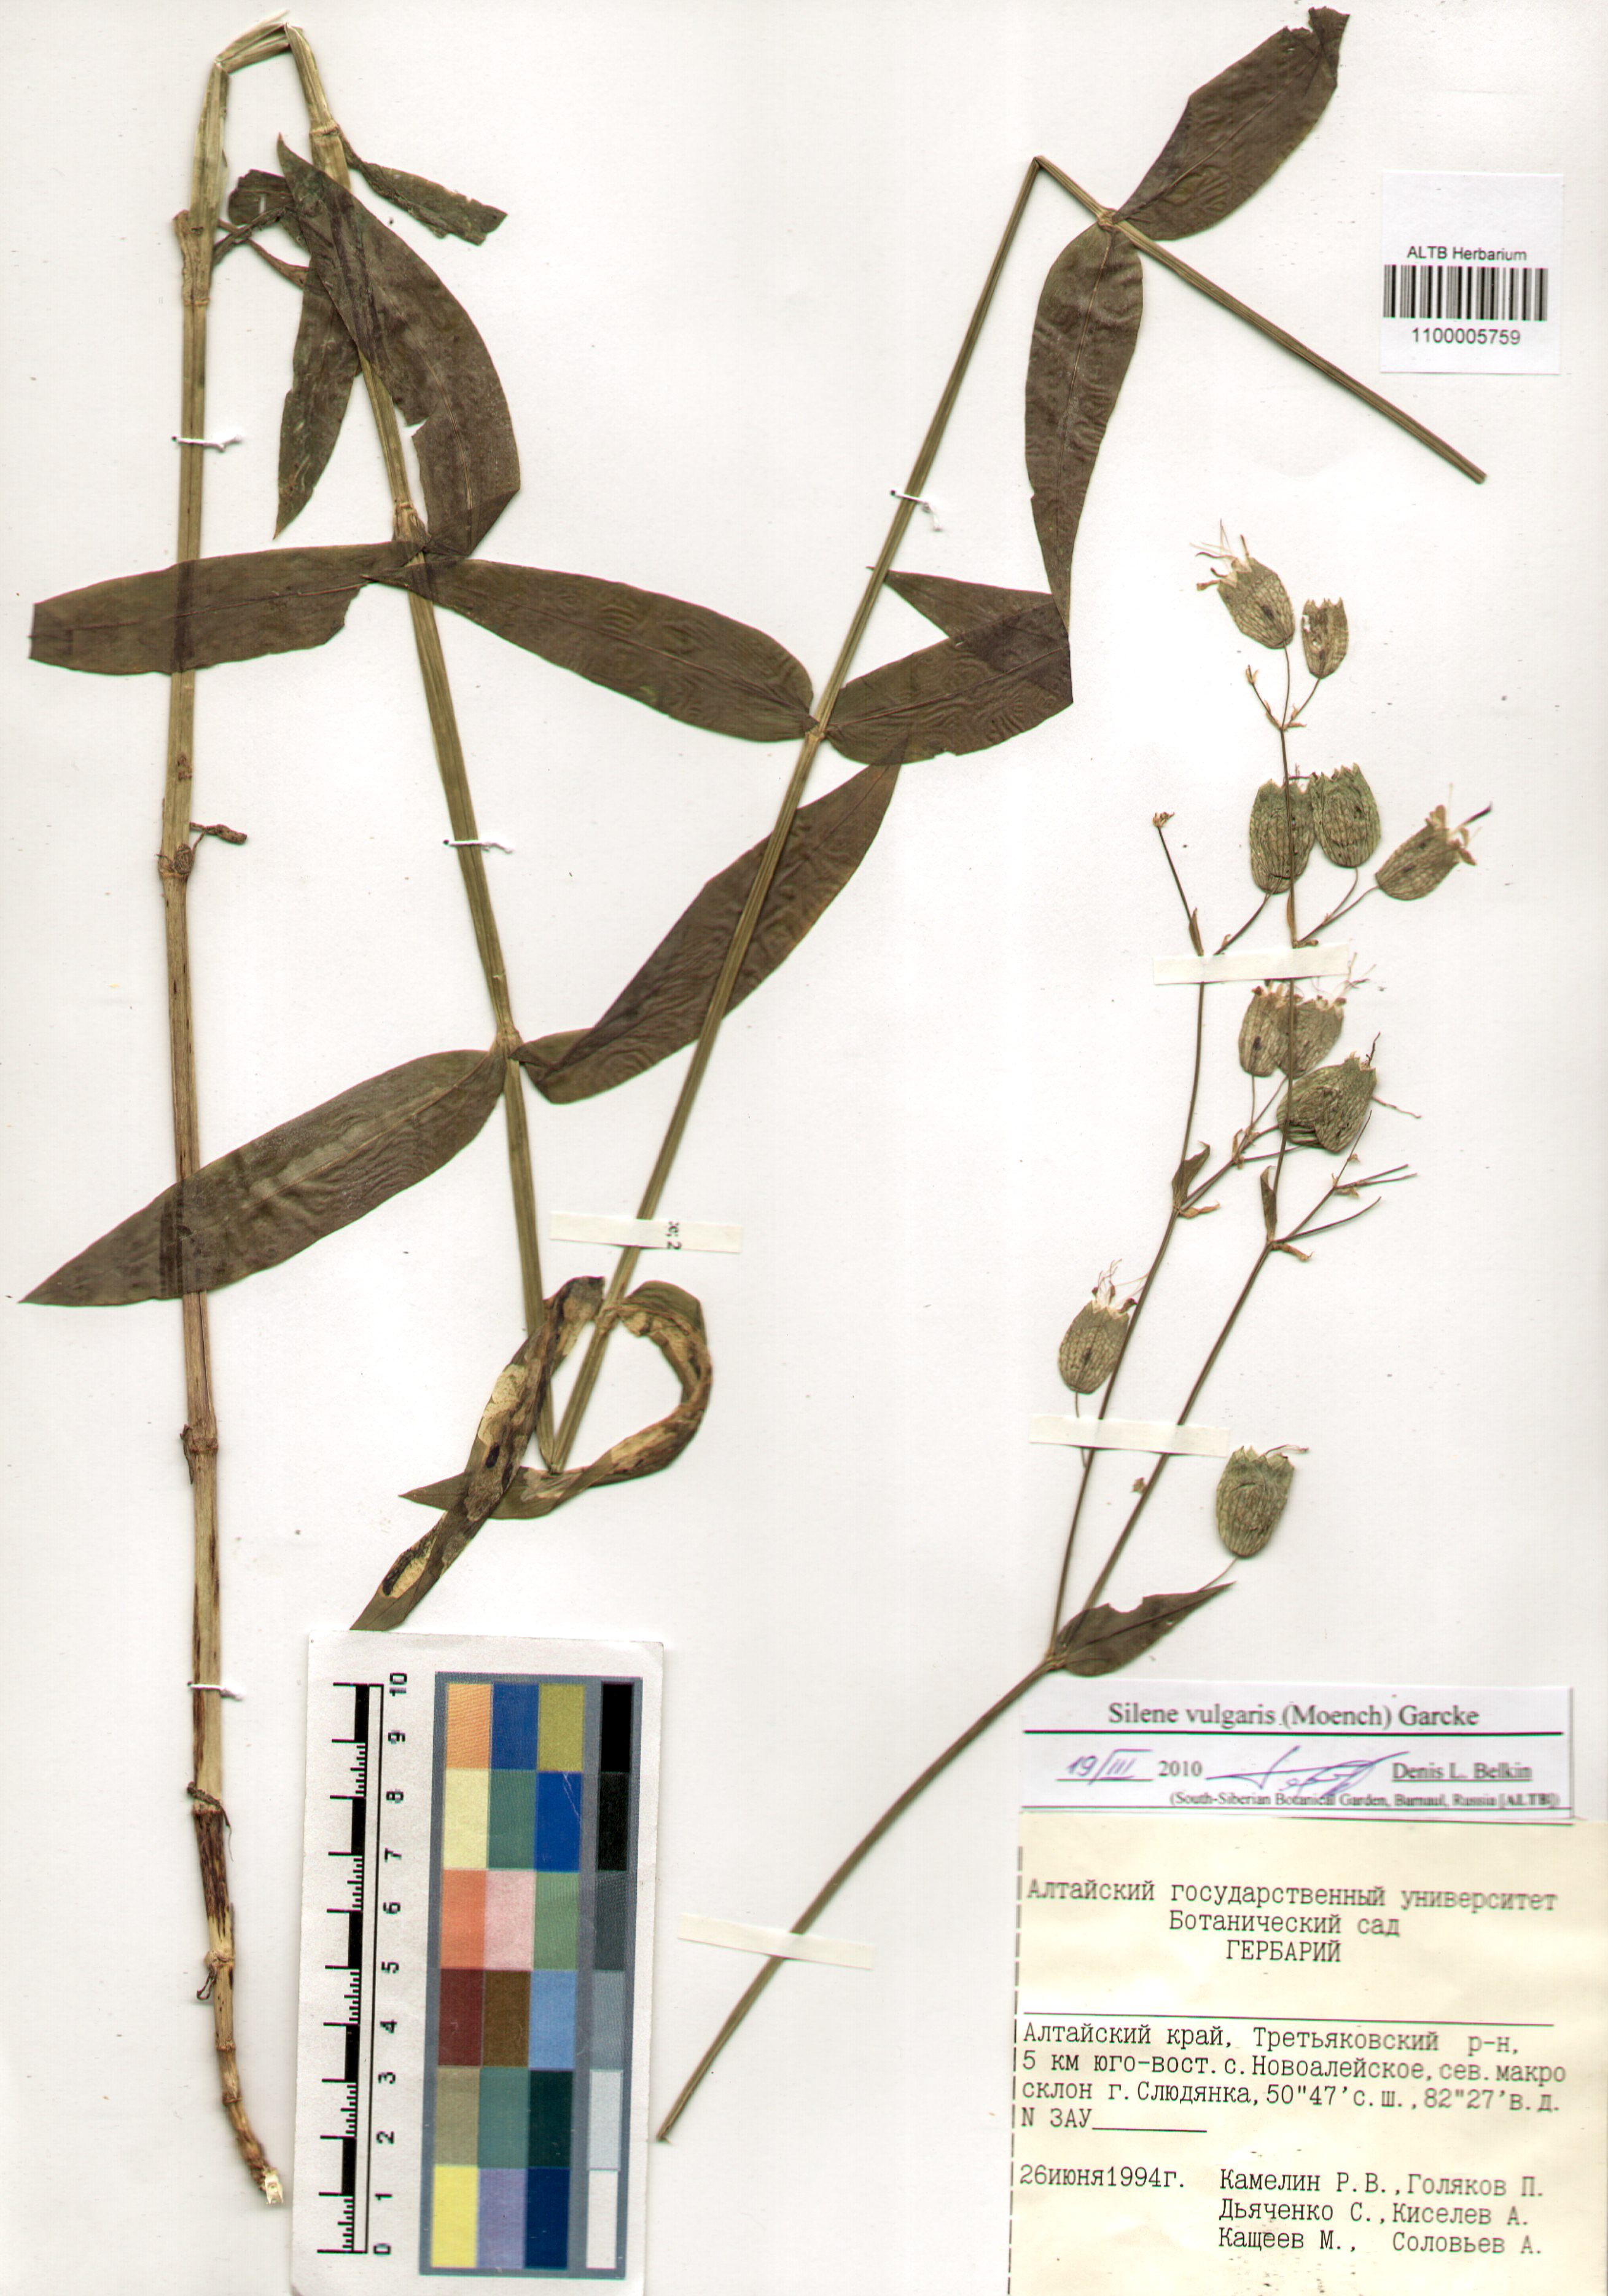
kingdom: Plantae
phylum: Tracheophyta
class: Magnoliopsida
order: Caryophyllales
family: Caryophyllaceae
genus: Silene
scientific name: Silene vulgaris
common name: Bladder campion
